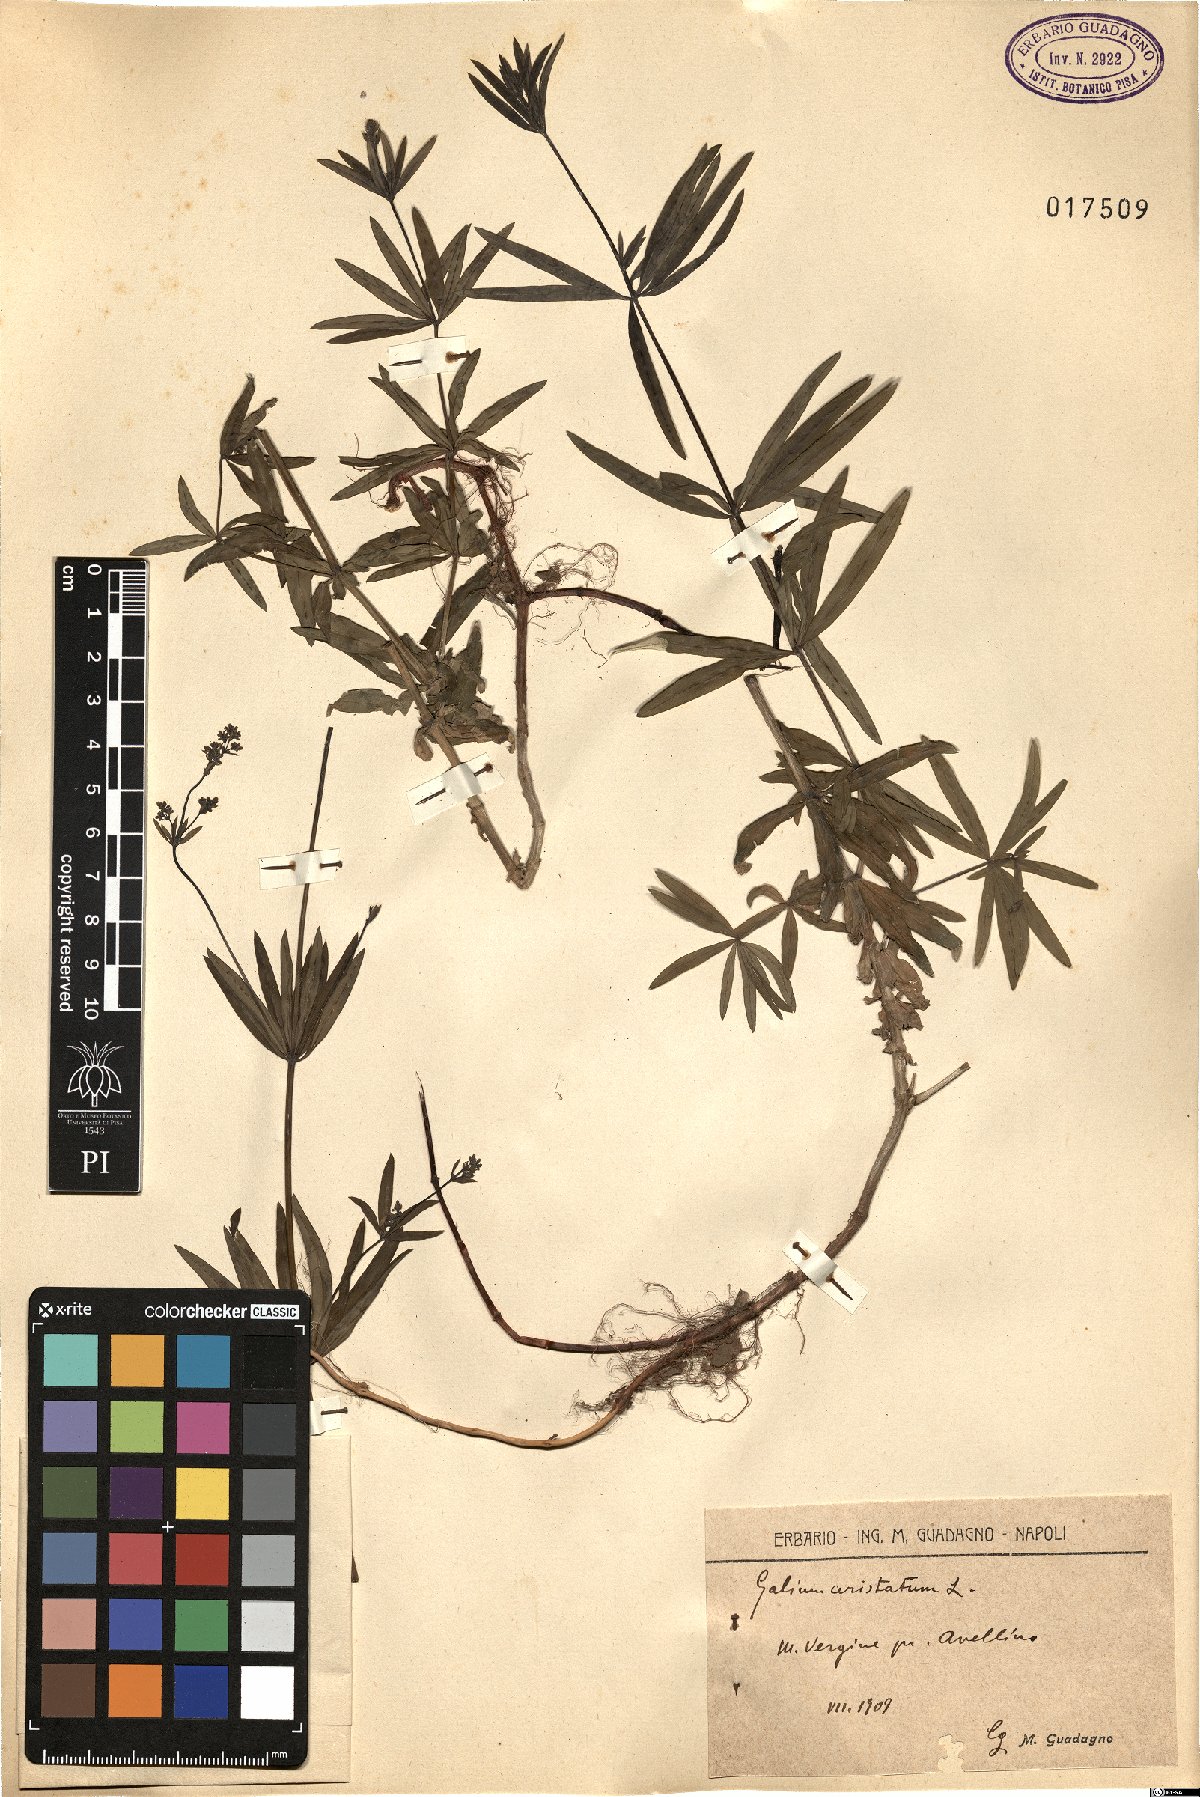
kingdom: Plantae
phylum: Tracheophyta
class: Magnoliopsida
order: Gentianales
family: Rubiaceae
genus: Galium
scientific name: Galium aristatum
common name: Awned bedstraw
